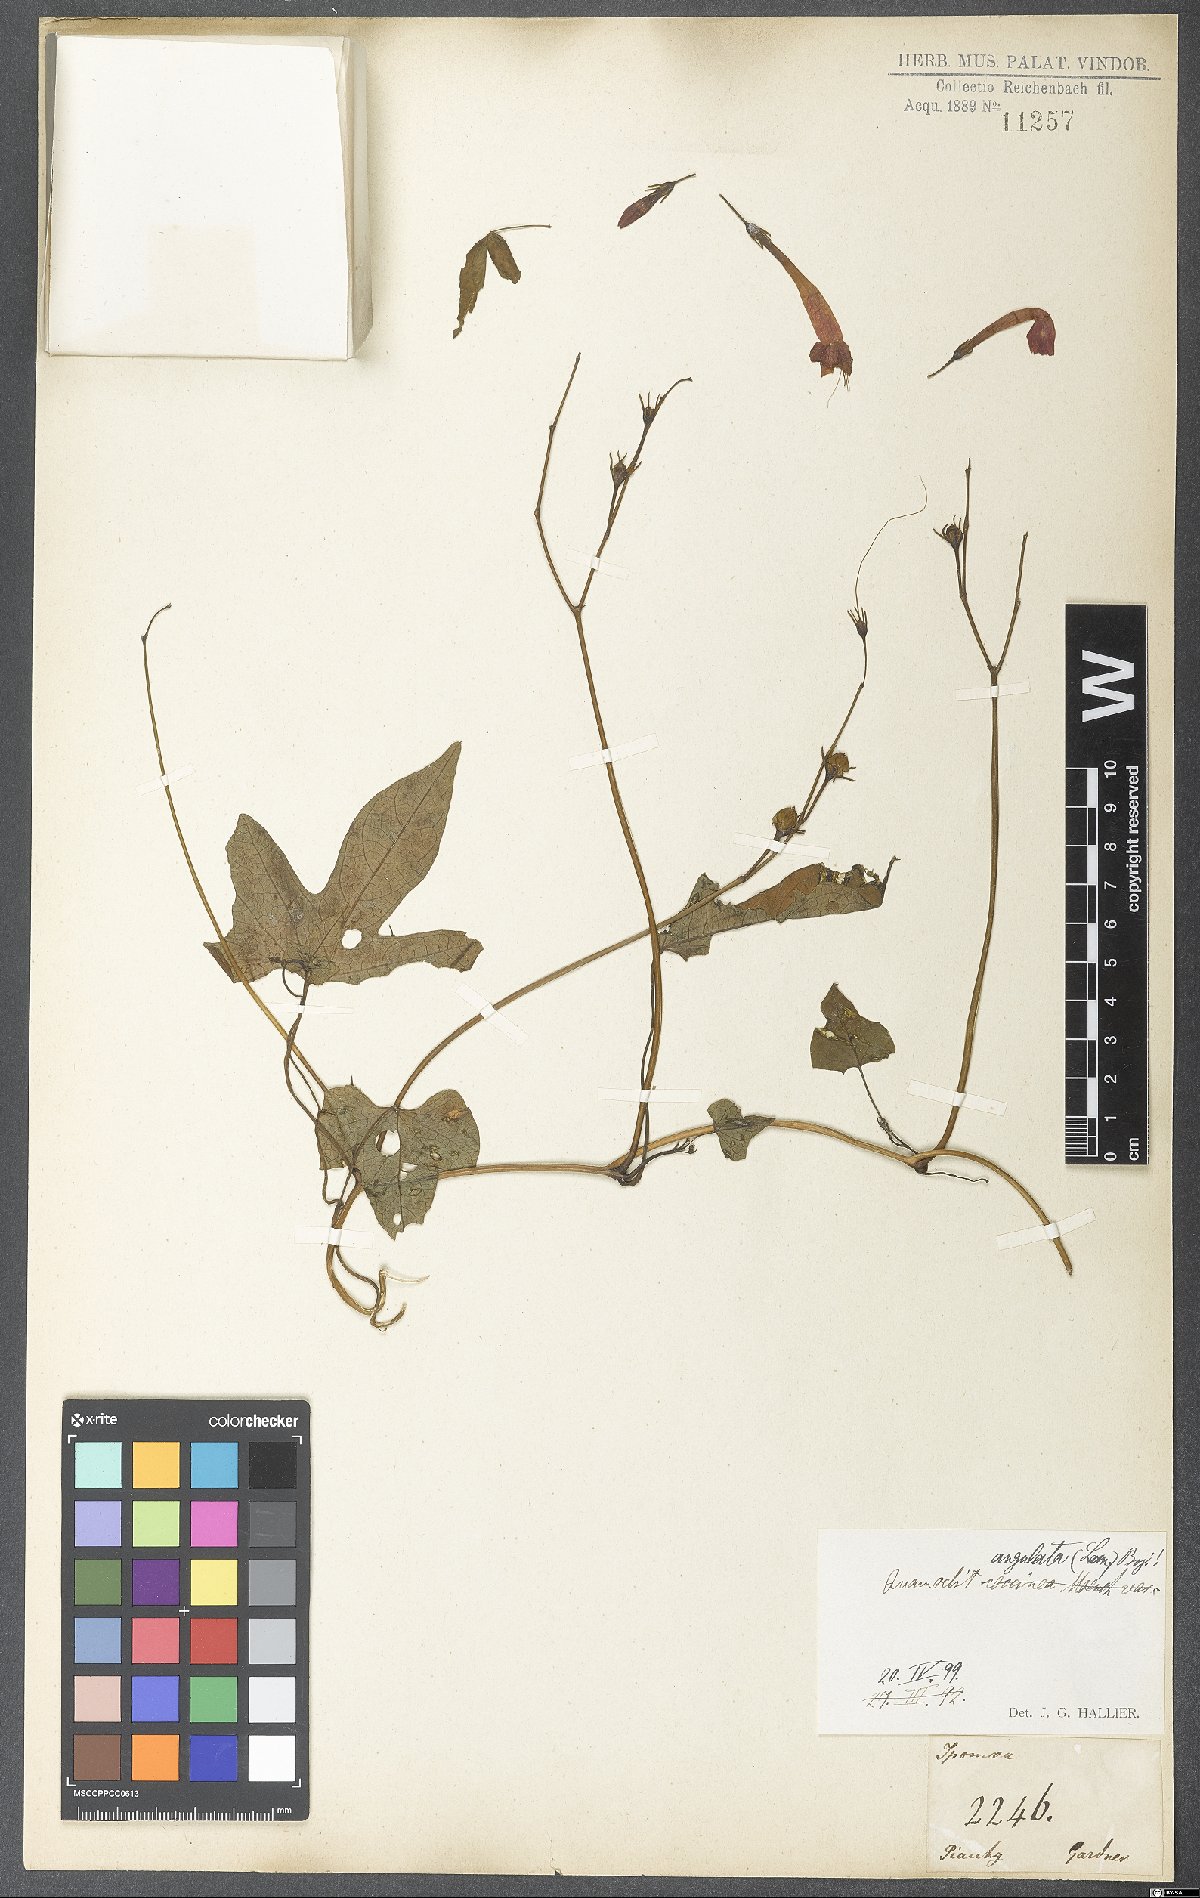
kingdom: Plantae
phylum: Tracheophyta
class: Magnoliopsida
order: Solanales
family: Convolvulaceae
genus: Ipomoea
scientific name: Ipomoea hederifolia
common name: Ivy-leaf morning-glory
